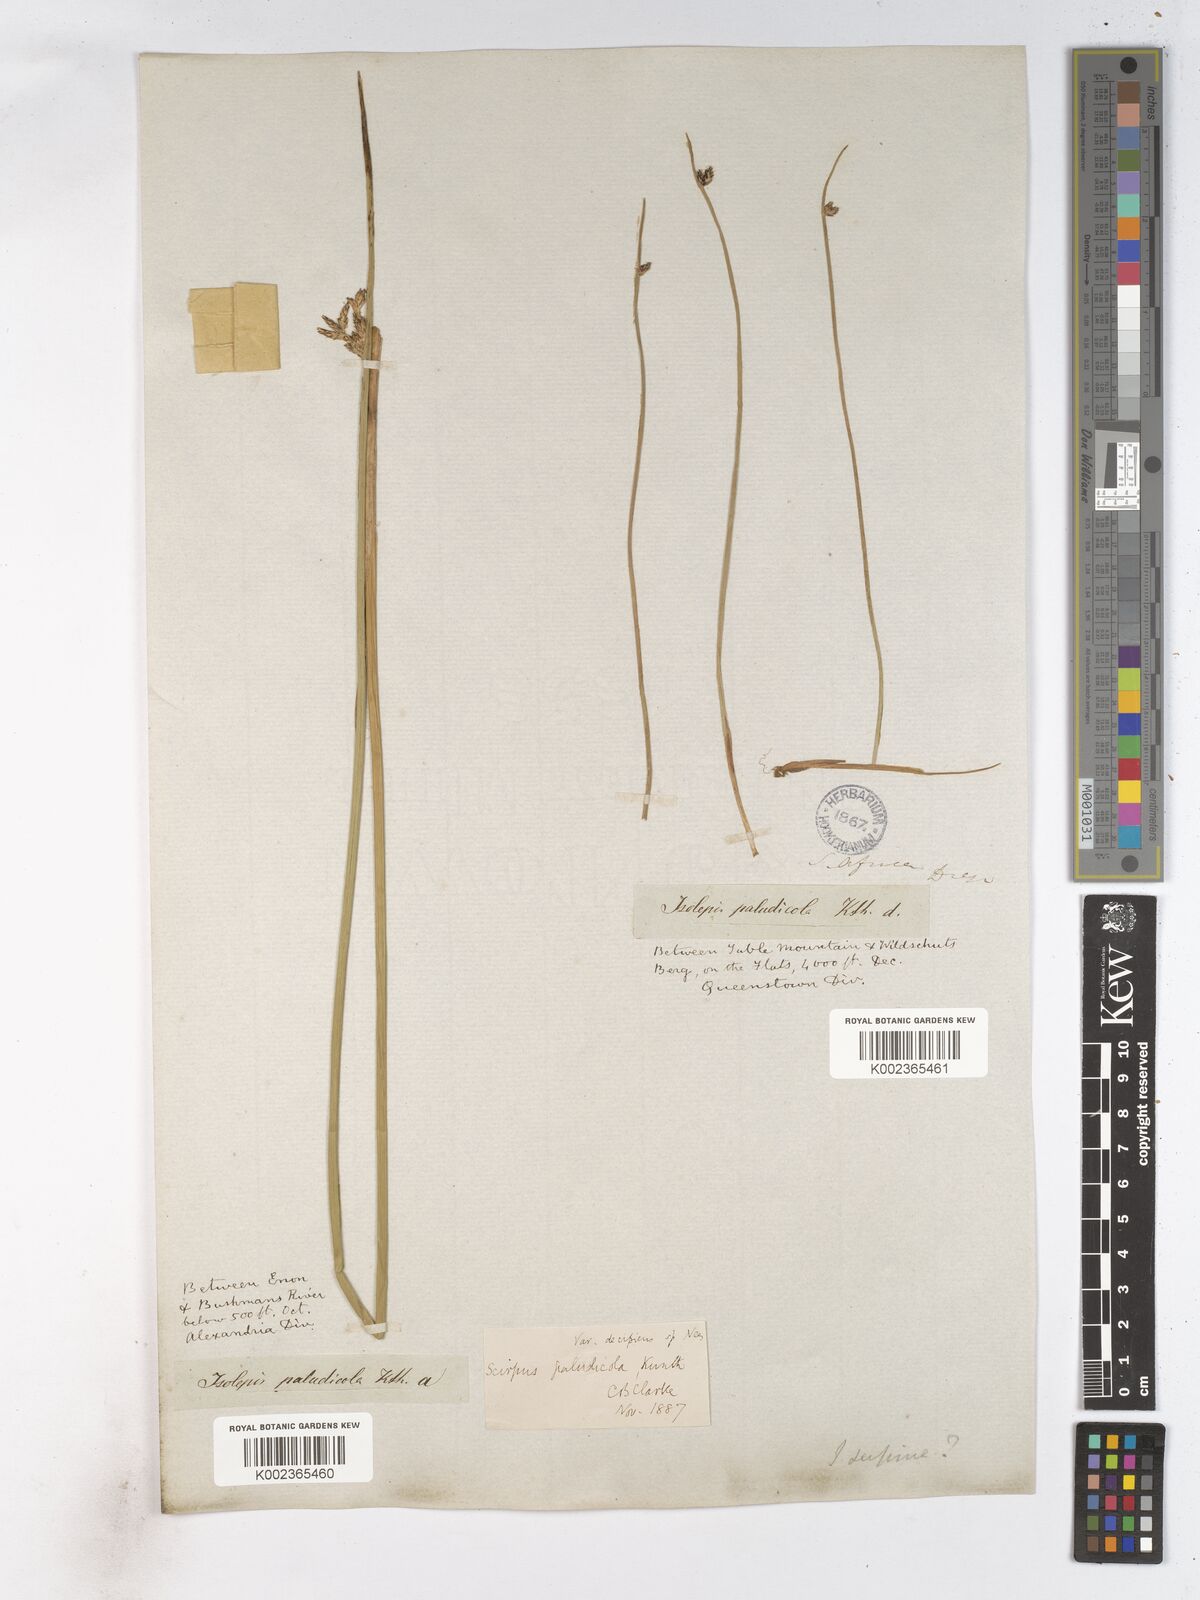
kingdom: Plantae
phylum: Tracheophyta
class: Liliopsida
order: Poales
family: Cyperaceae
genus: Schoenoplectiella
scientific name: Schoenoplectiella paludicola
